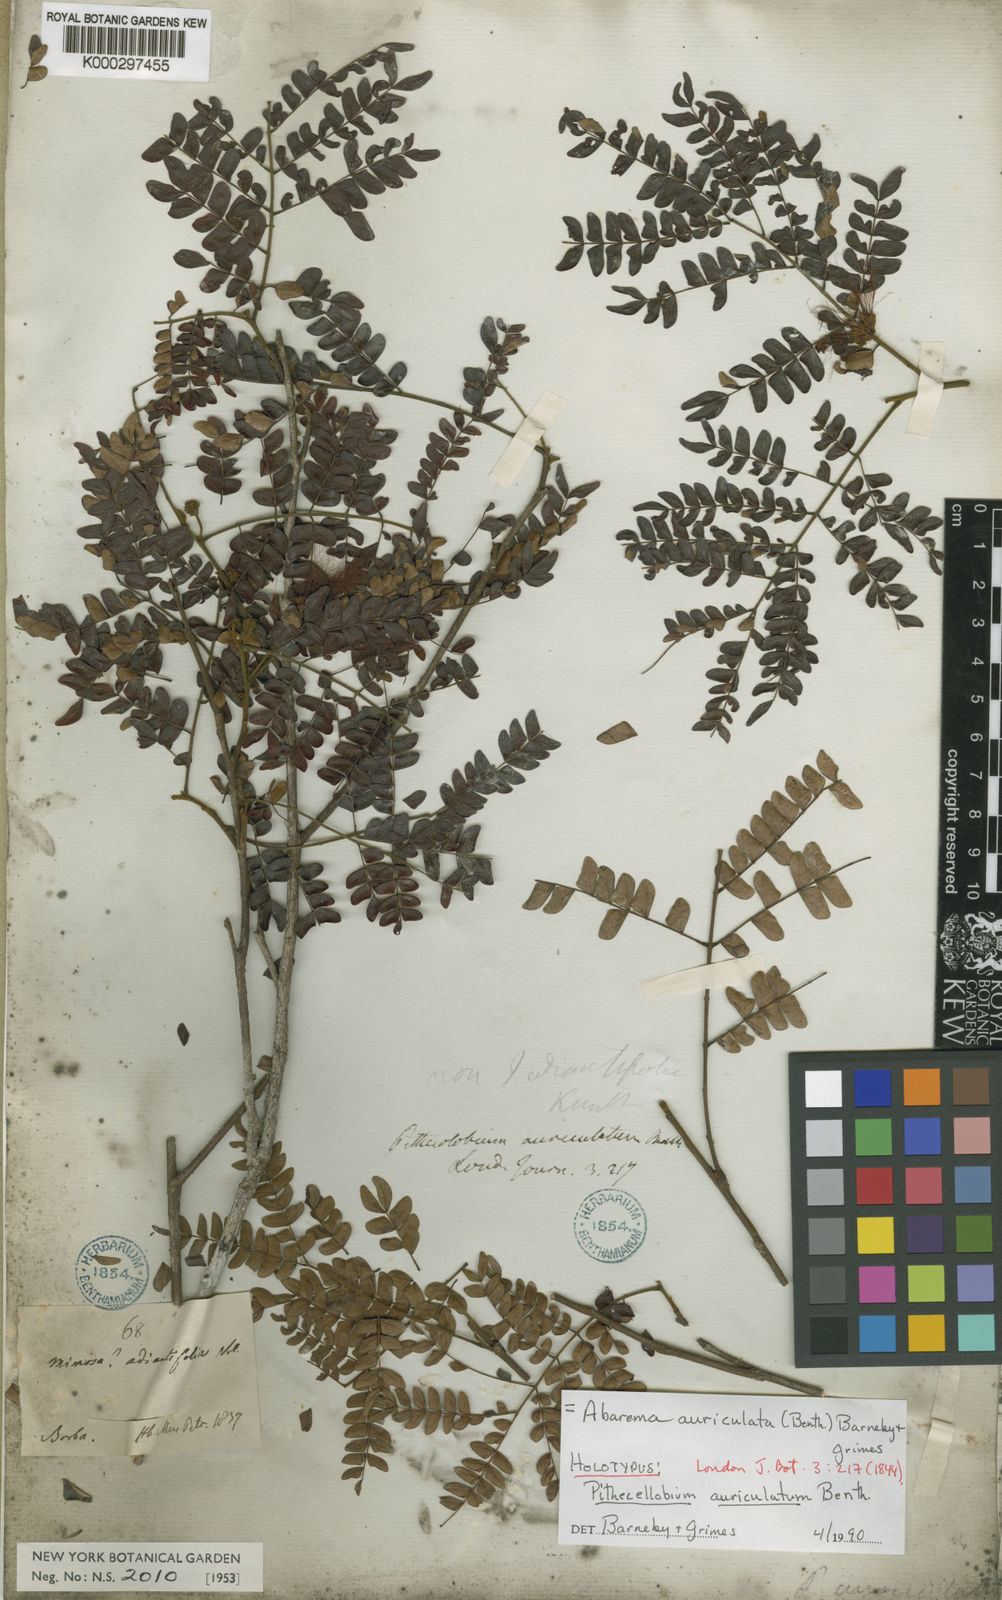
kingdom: Plantae
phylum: Tracheophyta
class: Magnoliopsida
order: Fabales
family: Fabaceae
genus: Jupunba
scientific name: Jupunba auriculata
